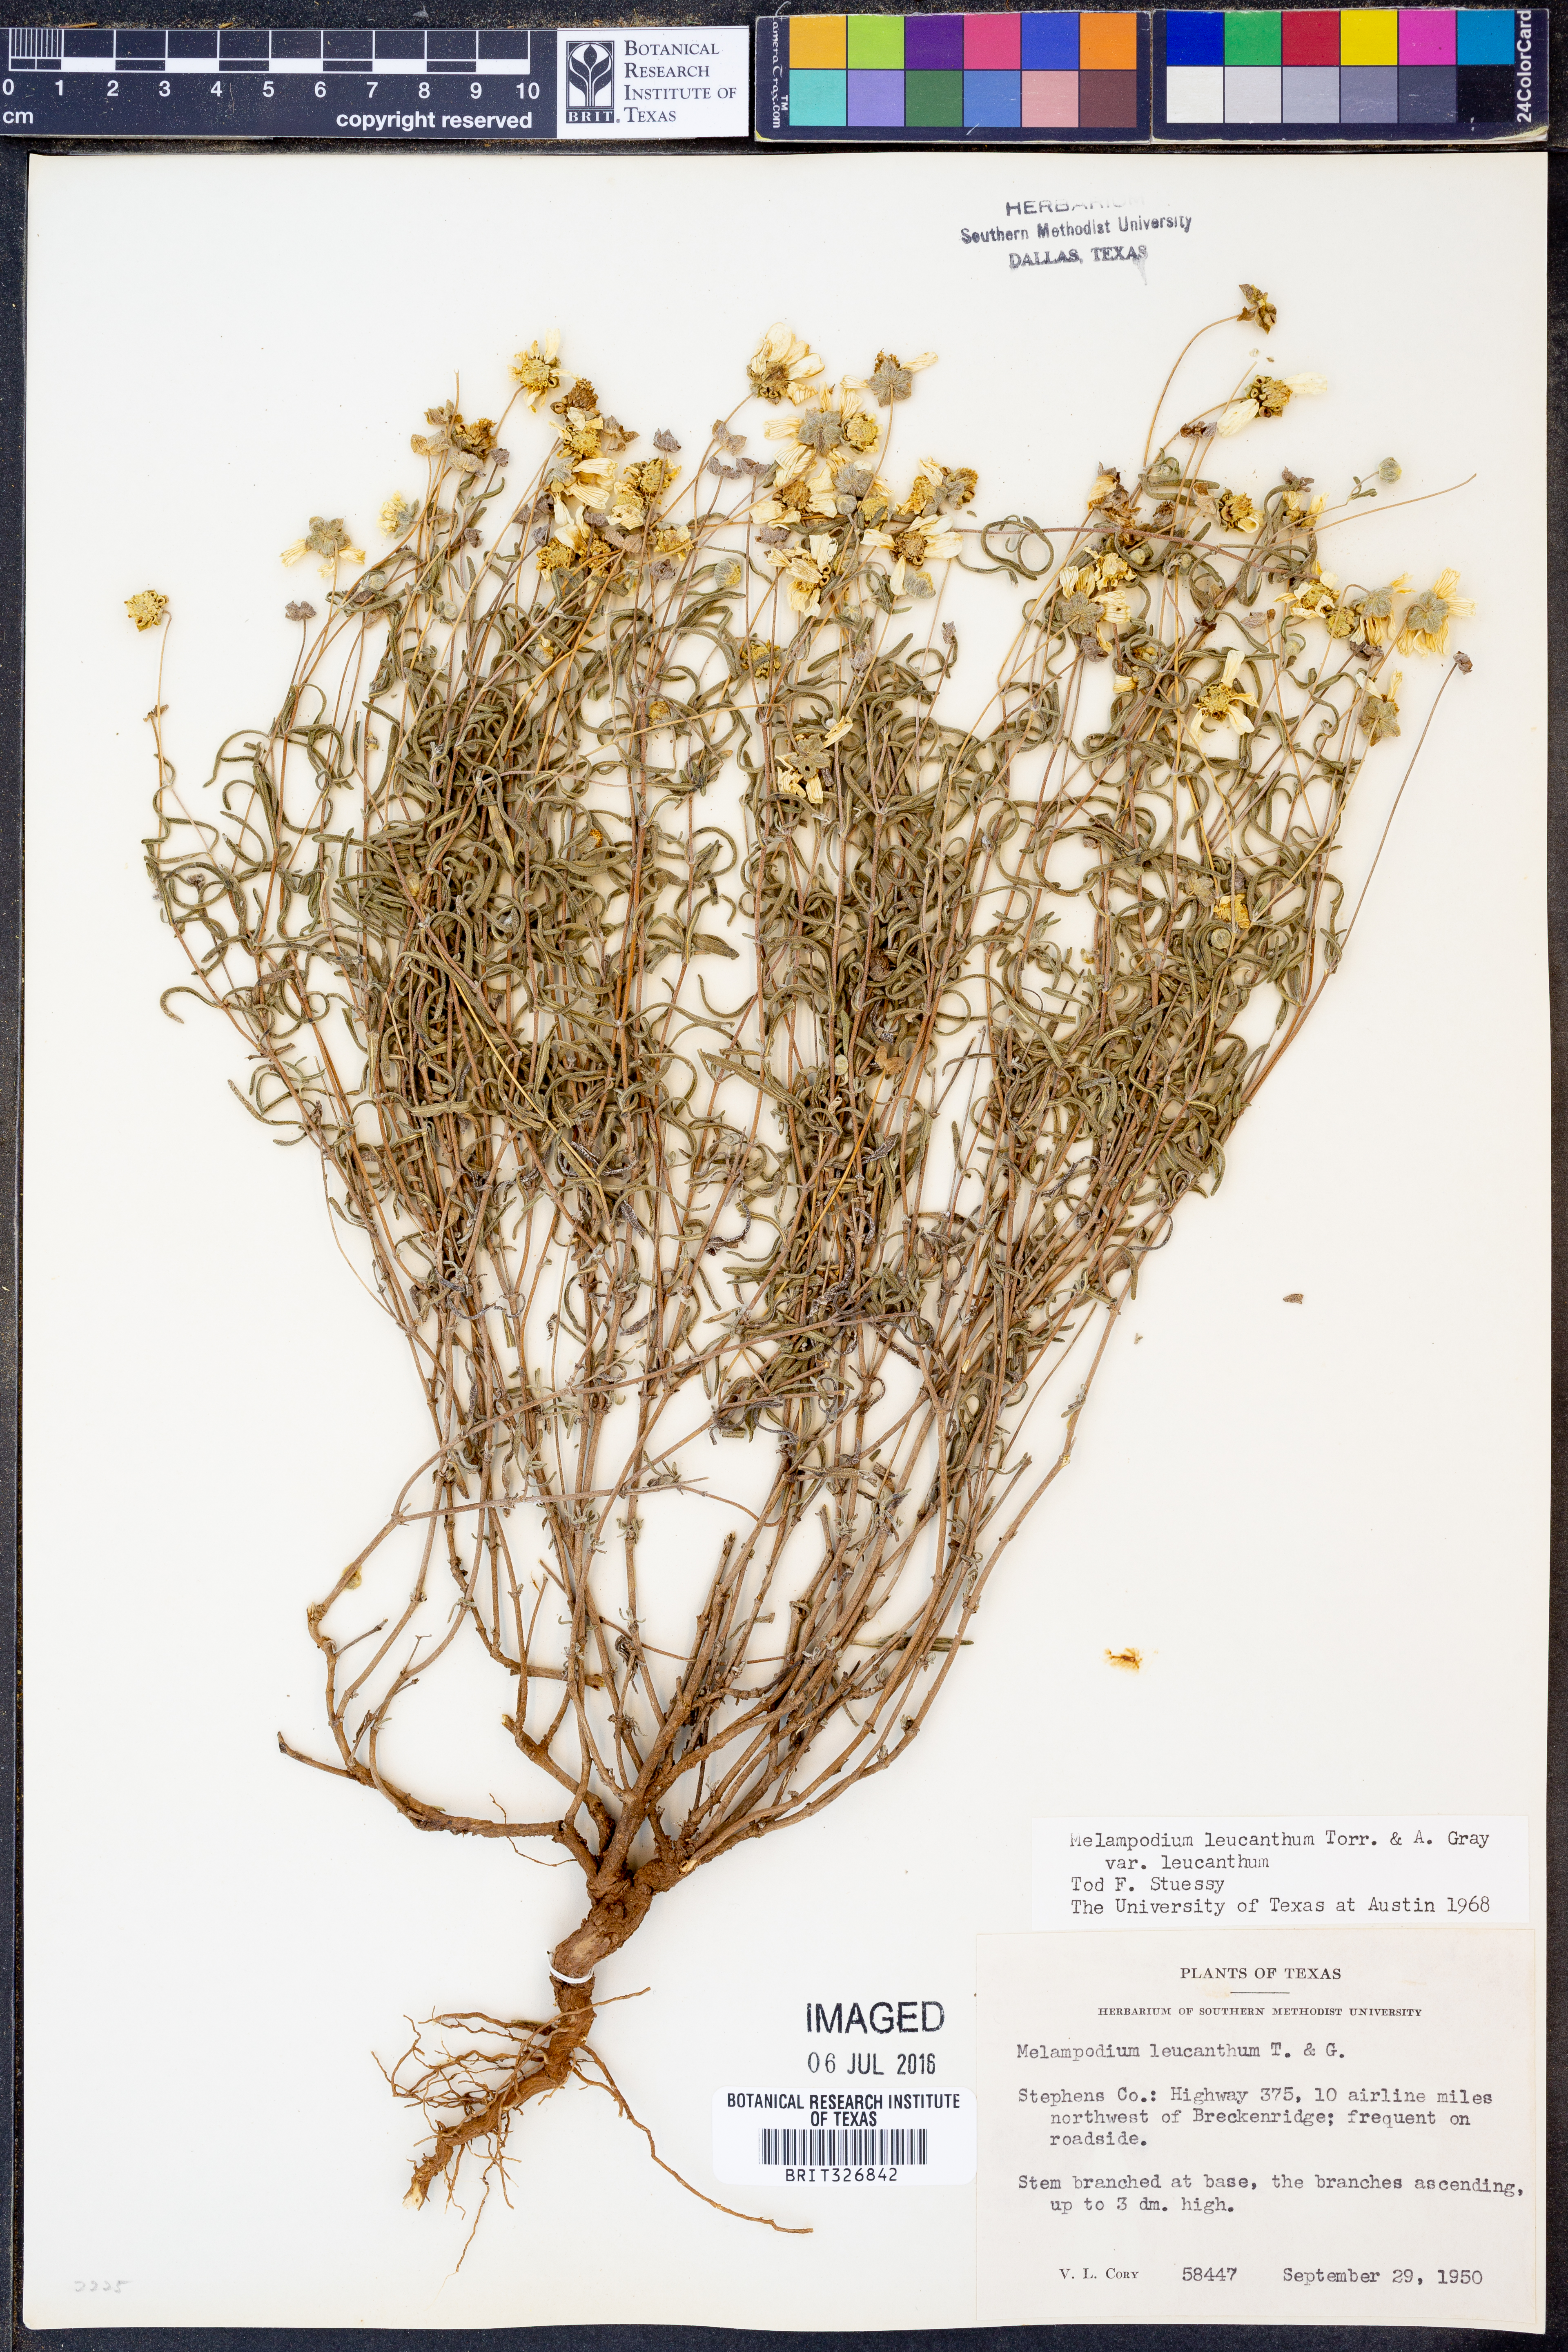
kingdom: Plantae
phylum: Tracheophyta
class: Magnoliopsida
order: Asterales
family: Asteraceae
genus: Melampodium
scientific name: Melampodium leucanthum
